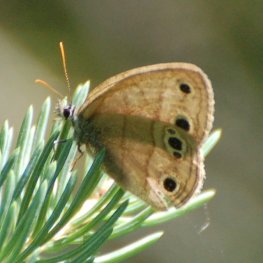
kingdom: Animalia
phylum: Arthropoda
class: Insecta
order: Lepidoptera
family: Nymphalidae
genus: Euptychia
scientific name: Euptychia cymela
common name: Little Wood Satyr
